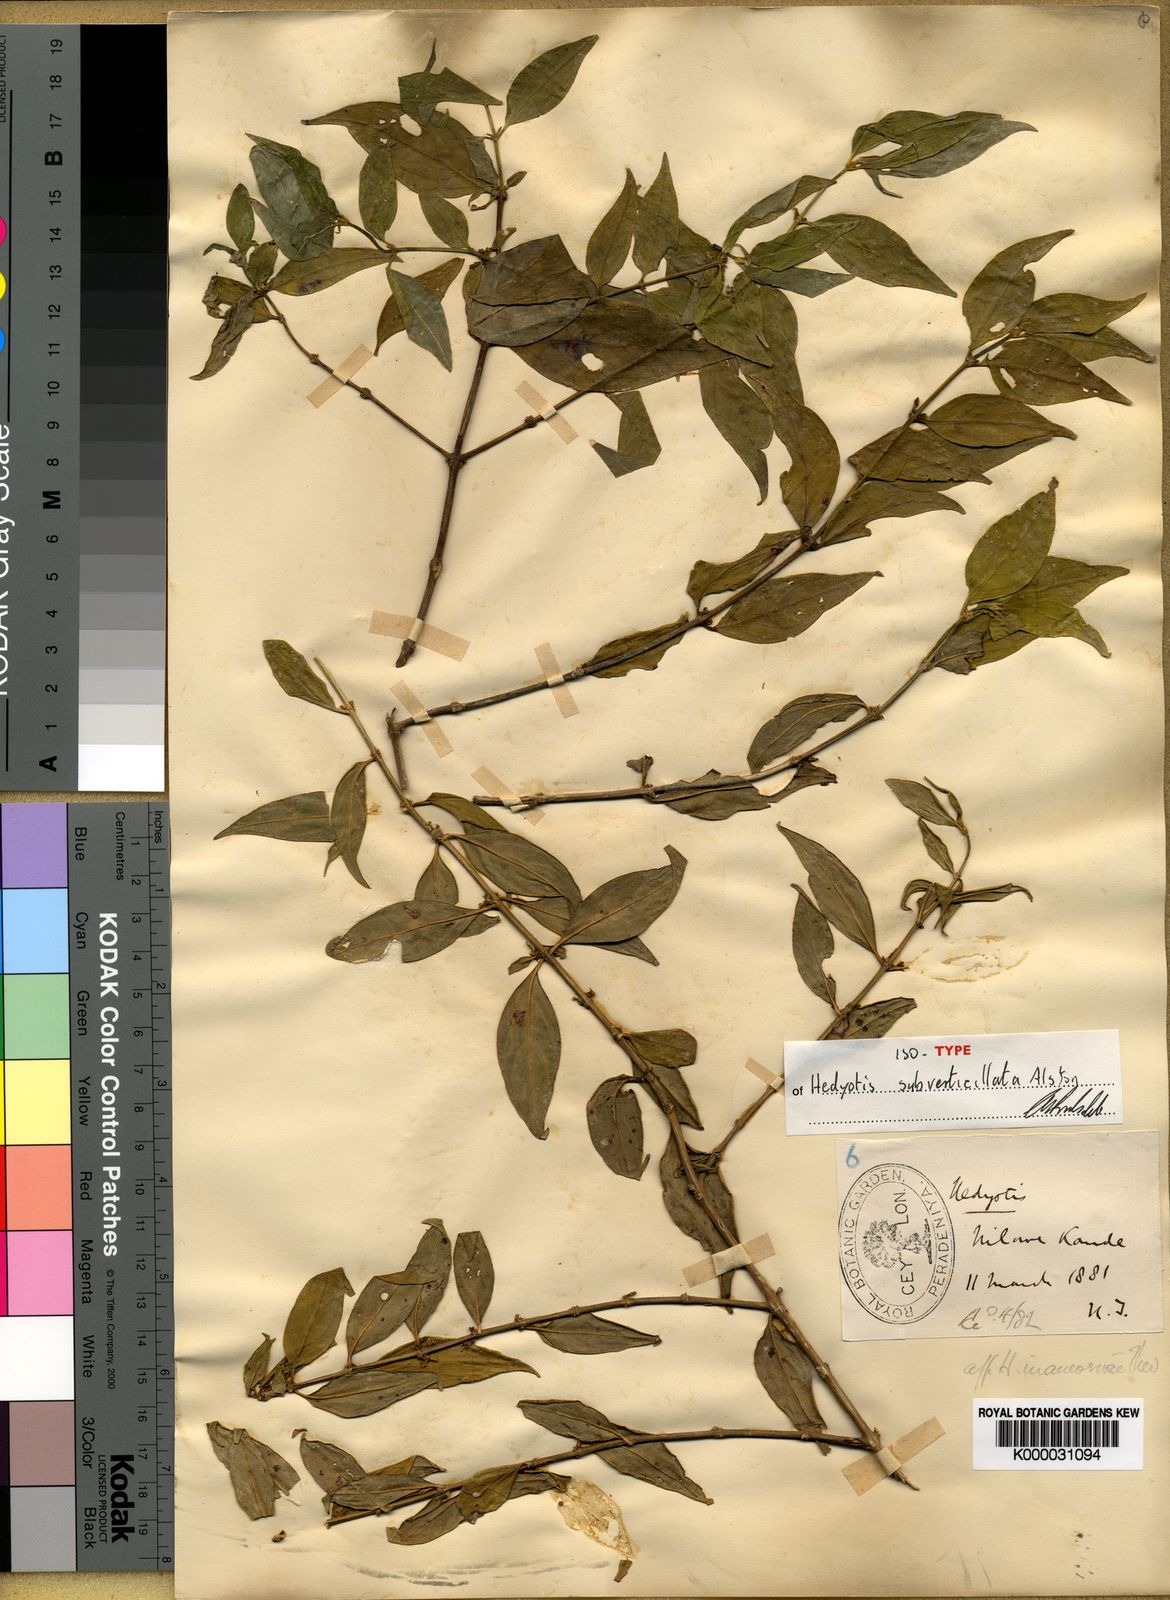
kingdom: Plantae
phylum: Tracheophyta
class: Magnoliopsida
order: Gentianales
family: Rubiaceae
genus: Hedyotis
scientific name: Hedyotis subverticillata
